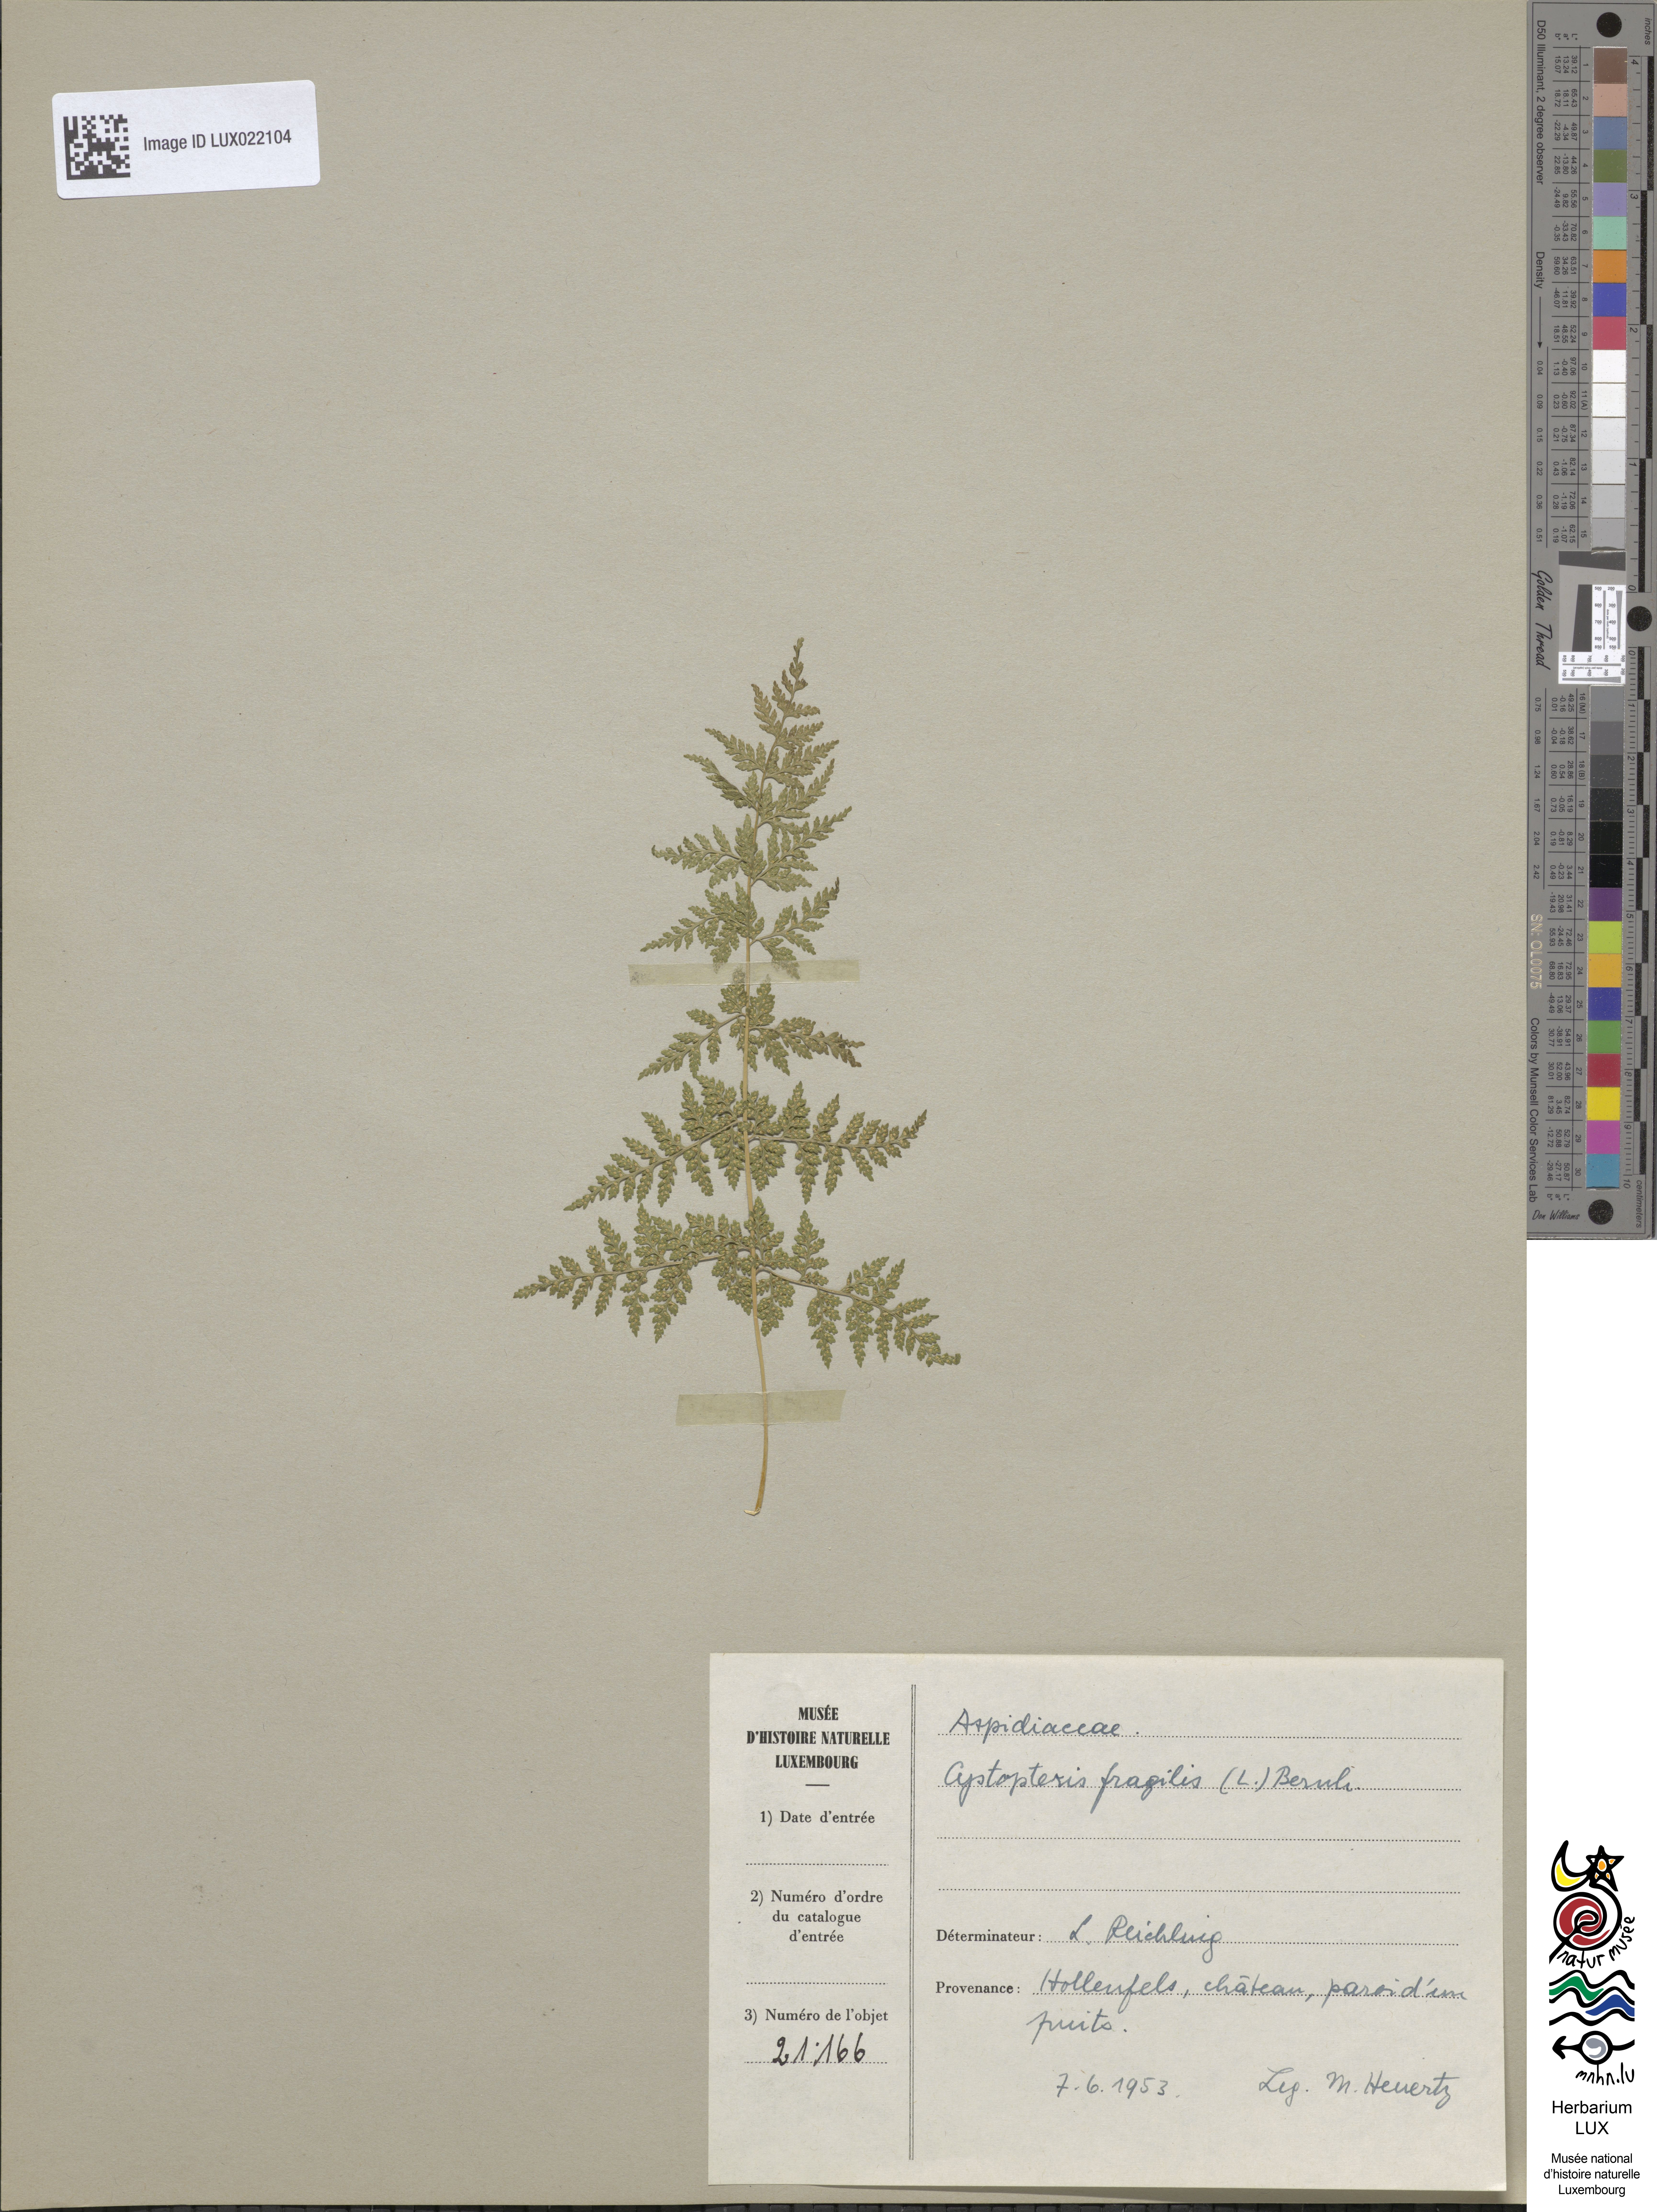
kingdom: Plantae
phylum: Tracheophyta
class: Polypodiopsida
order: Polypodiales
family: Cystopteridaceae
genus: Cystopteris
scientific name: Cystopteris fragilis
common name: Brittle bladder fern
